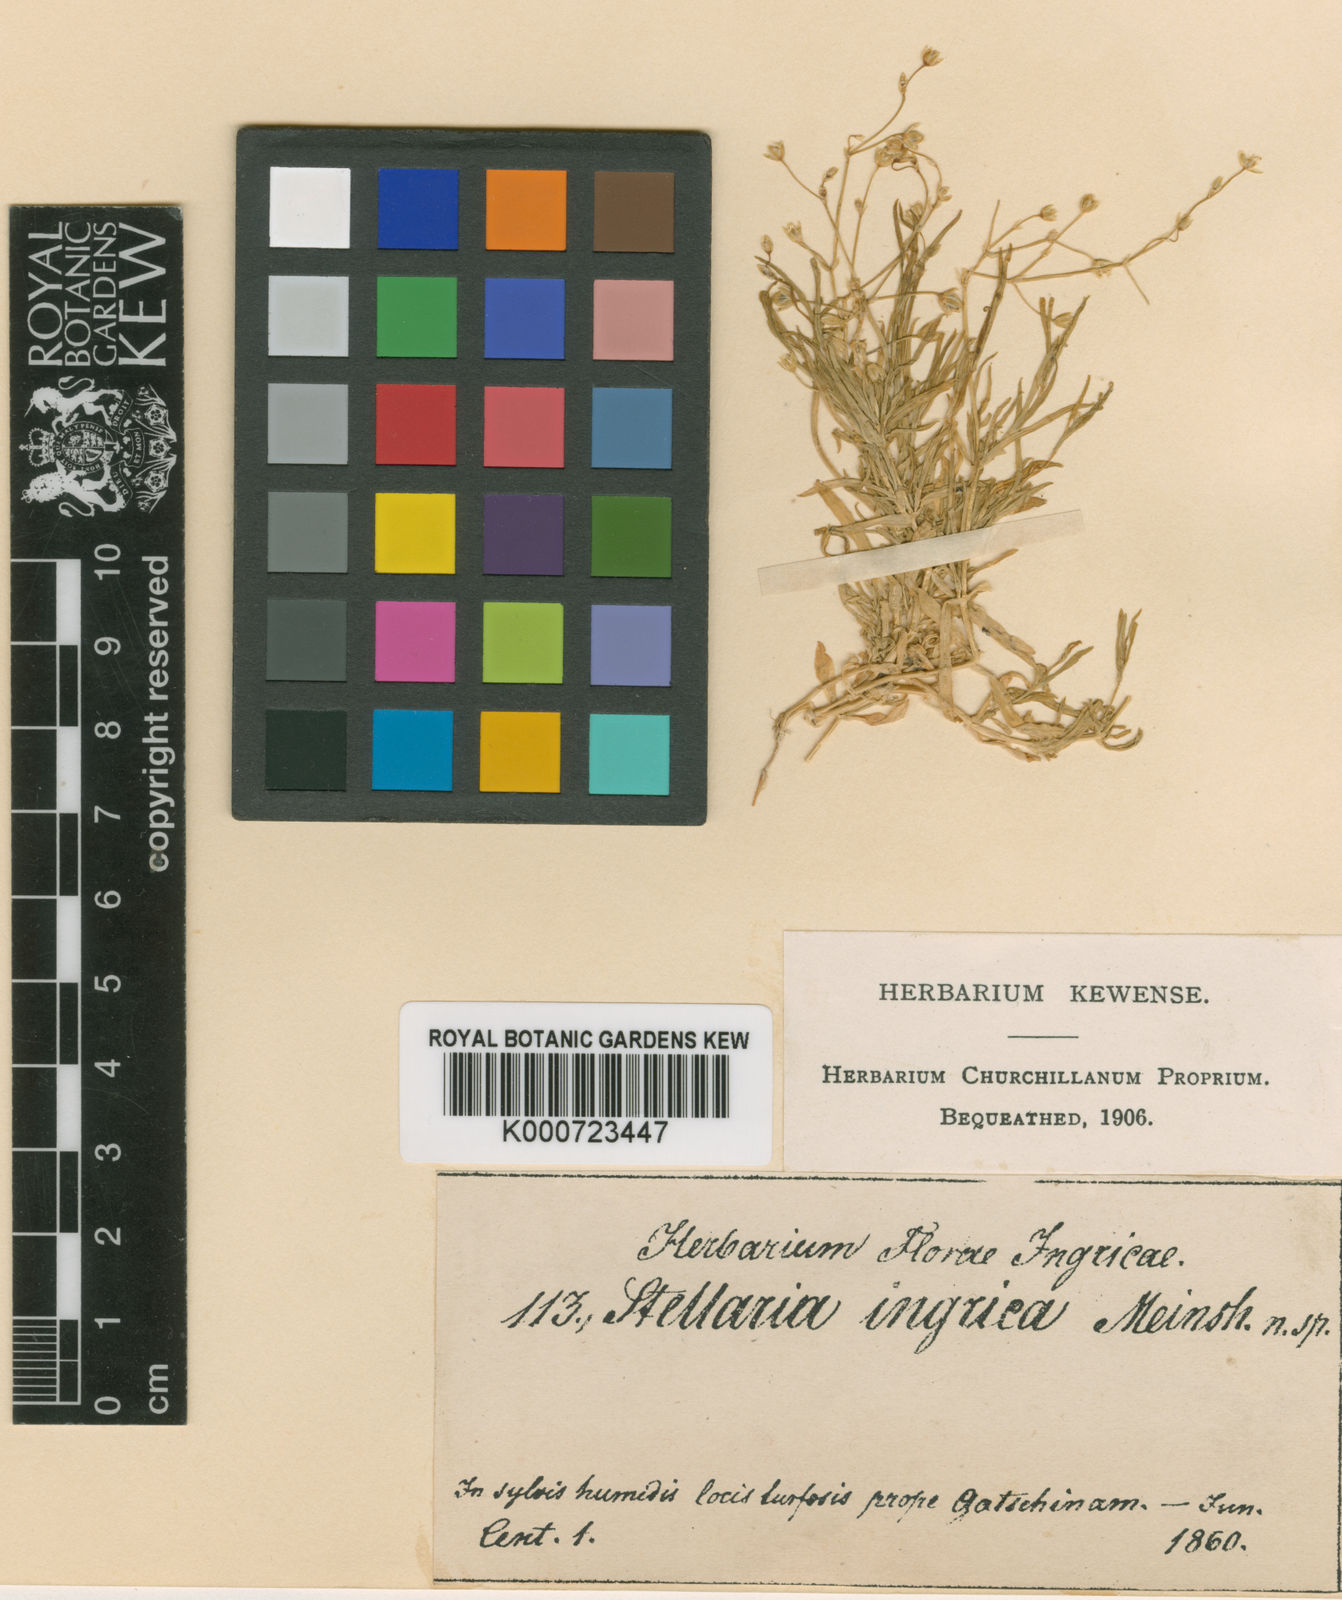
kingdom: Plantae
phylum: Tracheophyta
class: Magnoliopsida
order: Caryophyllales
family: Caryophyllaceae
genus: Stellaria
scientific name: Stellaria longifolia
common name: Long-leaved chickweed
